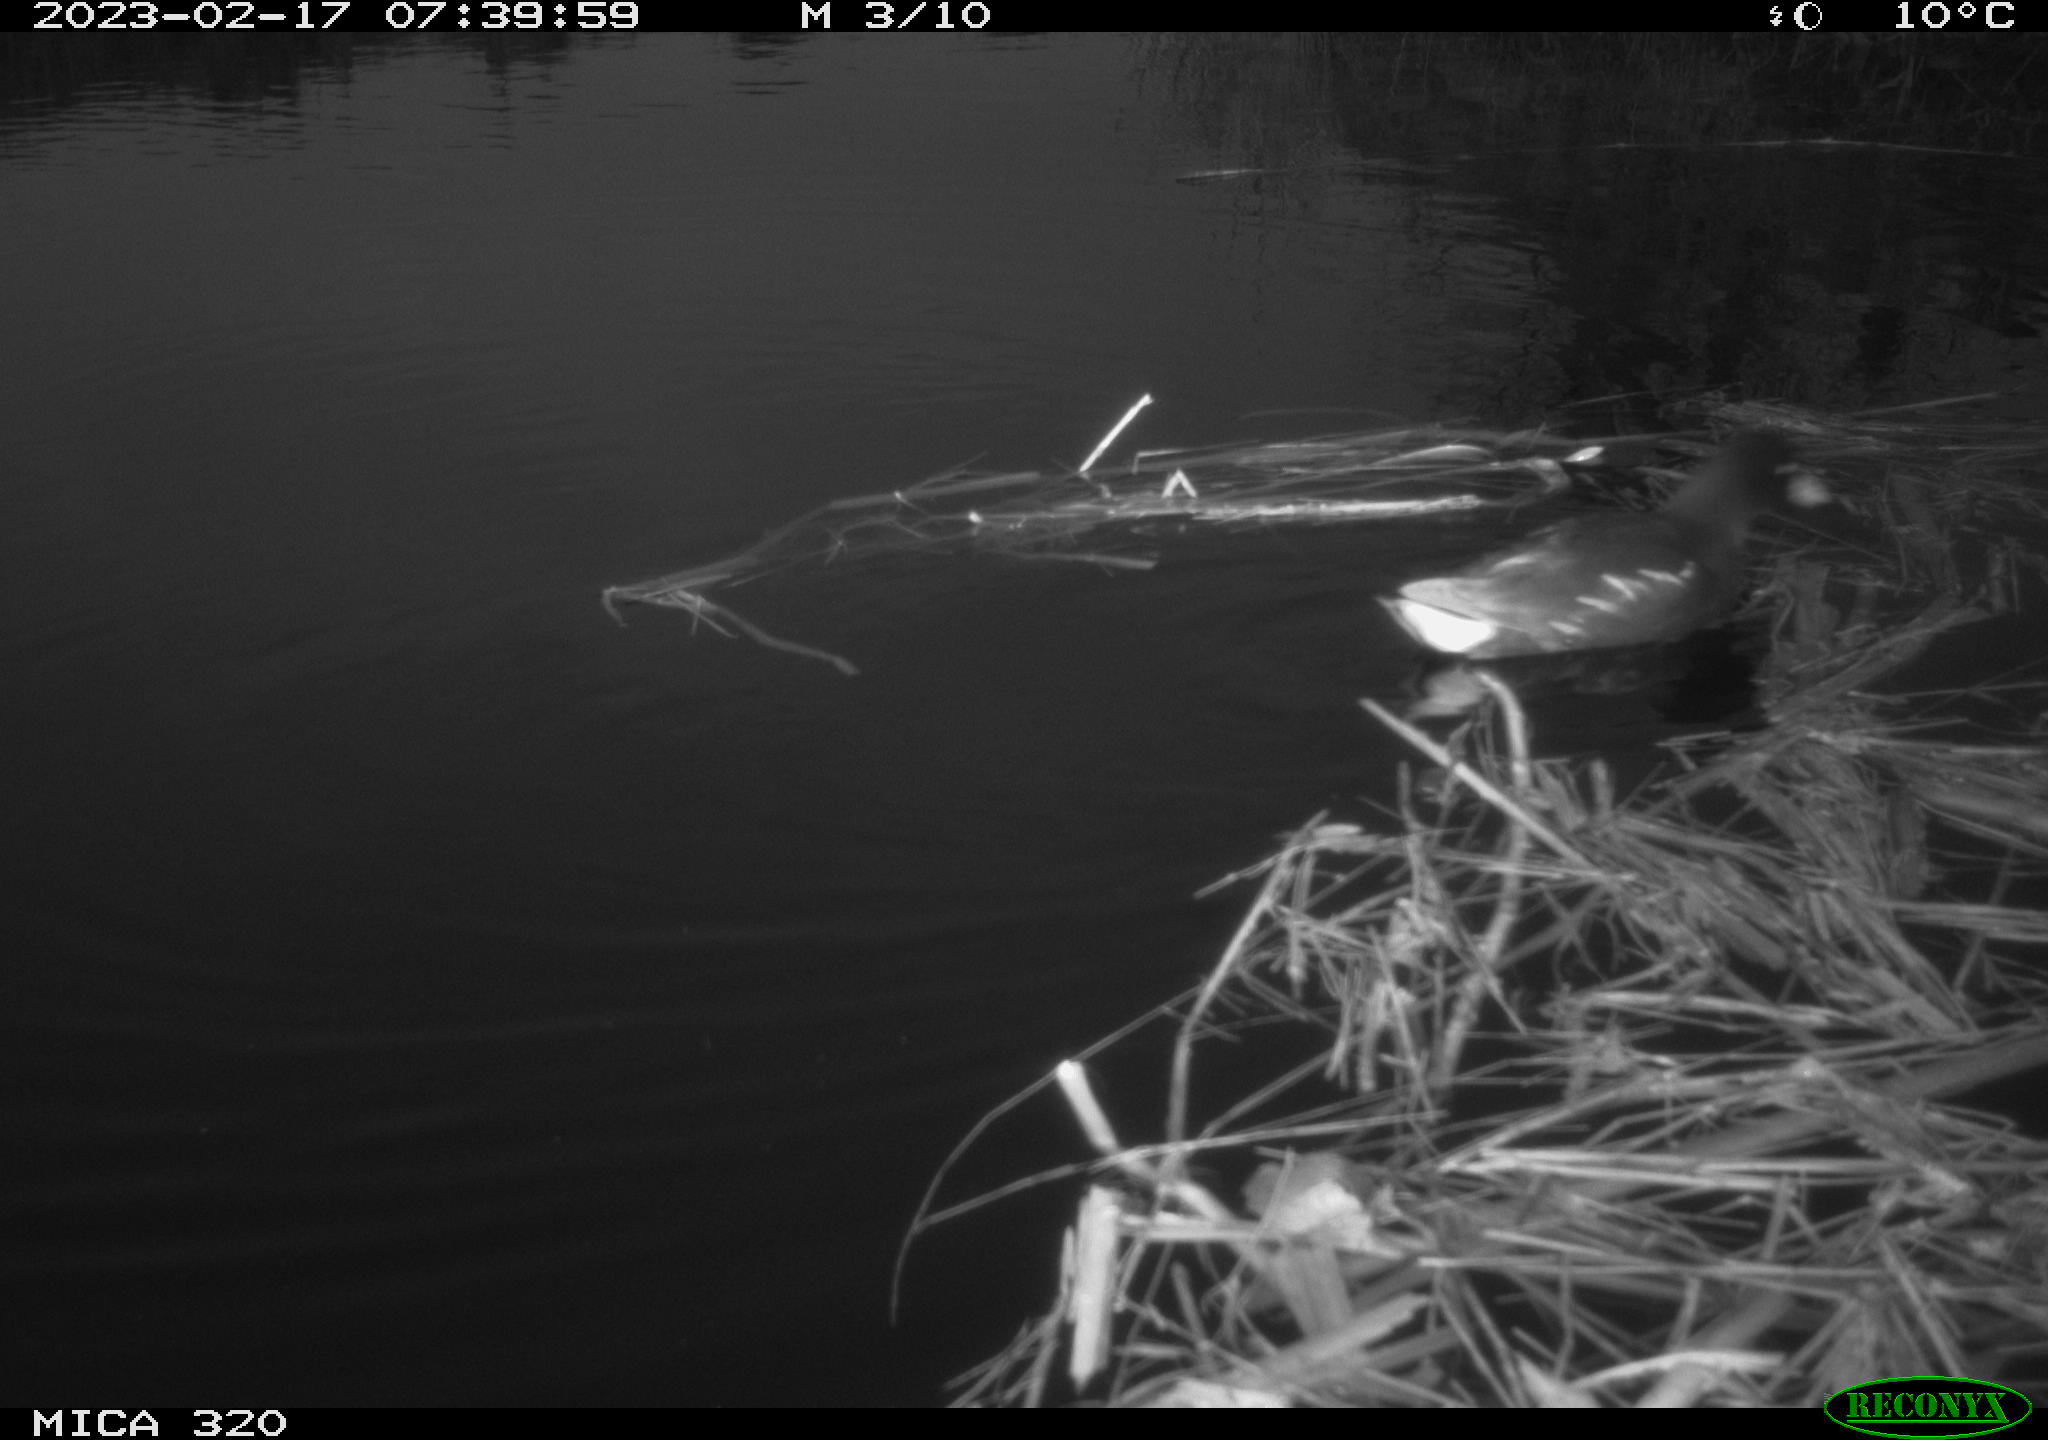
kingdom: Animalia
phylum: Chordata
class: Aves
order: Gruiformes
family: Rallidae
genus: Gallinula
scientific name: Gallinula chloropus
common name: Common moorhen
